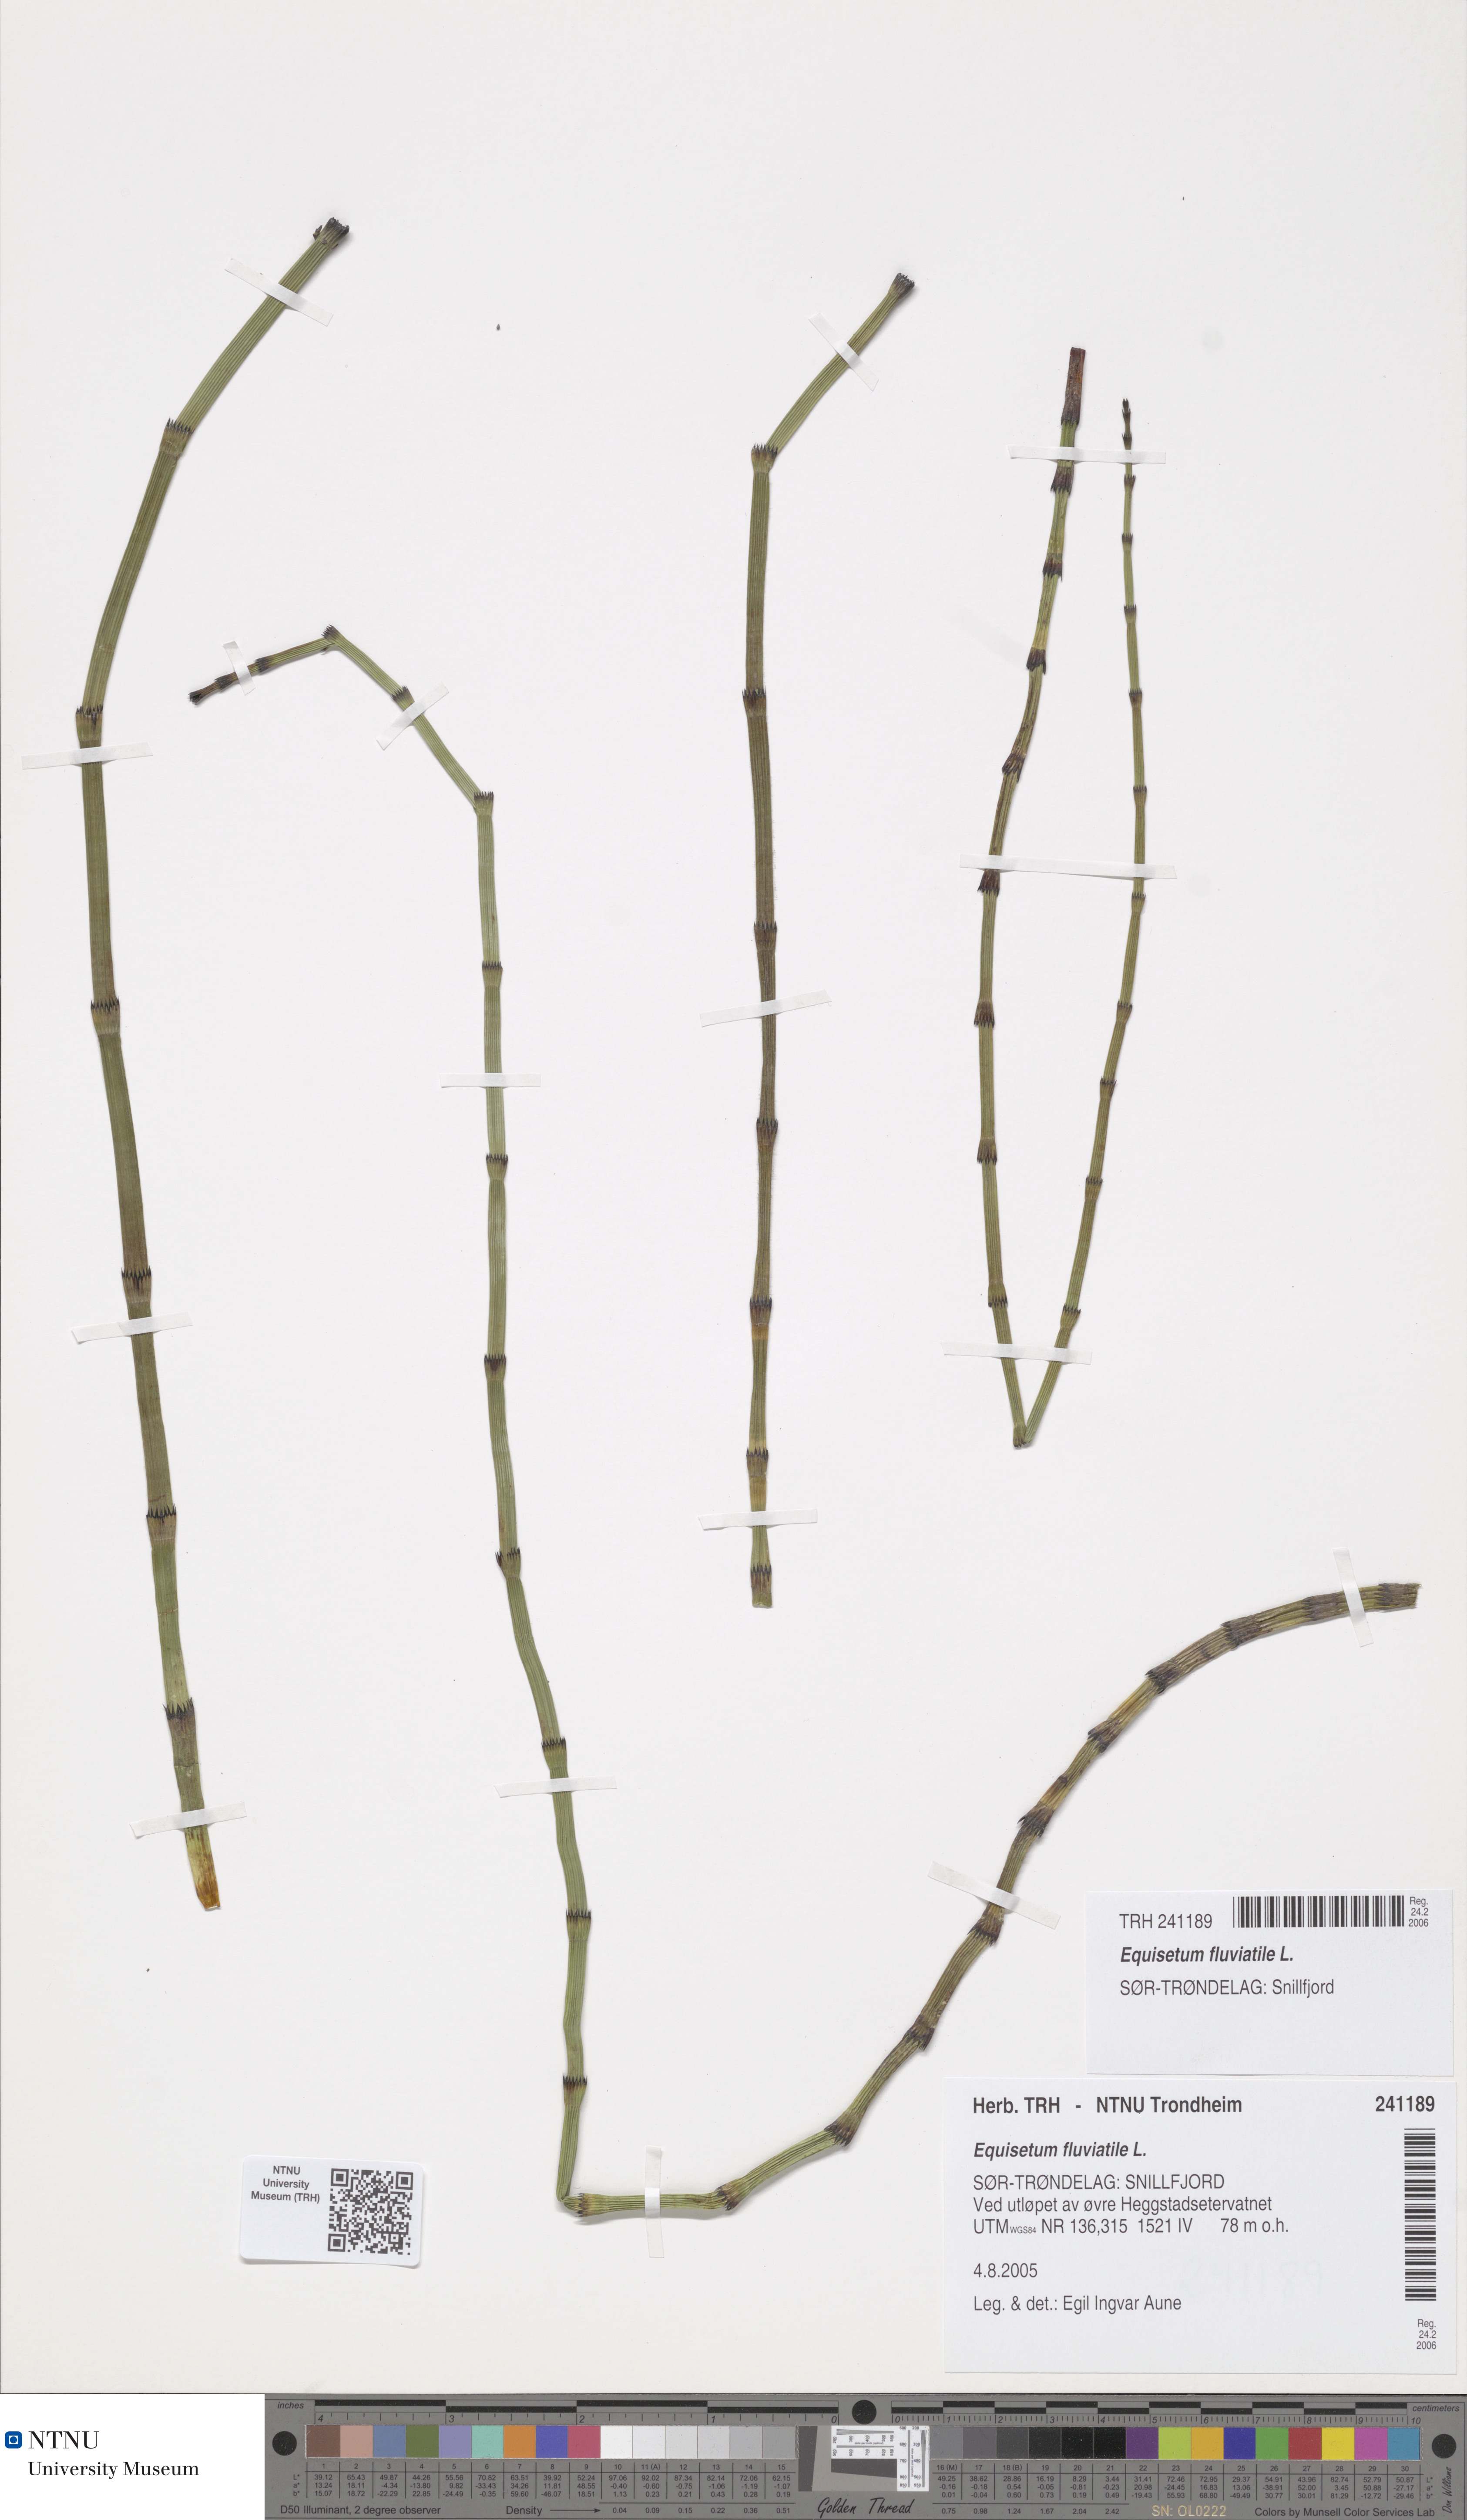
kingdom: Plantae
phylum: Tracheophyta
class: Polypodiopsida
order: Equisetales
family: Equisetaceae
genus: Equisetum
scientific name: Equisetum fluviatile
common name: Water horsetail
